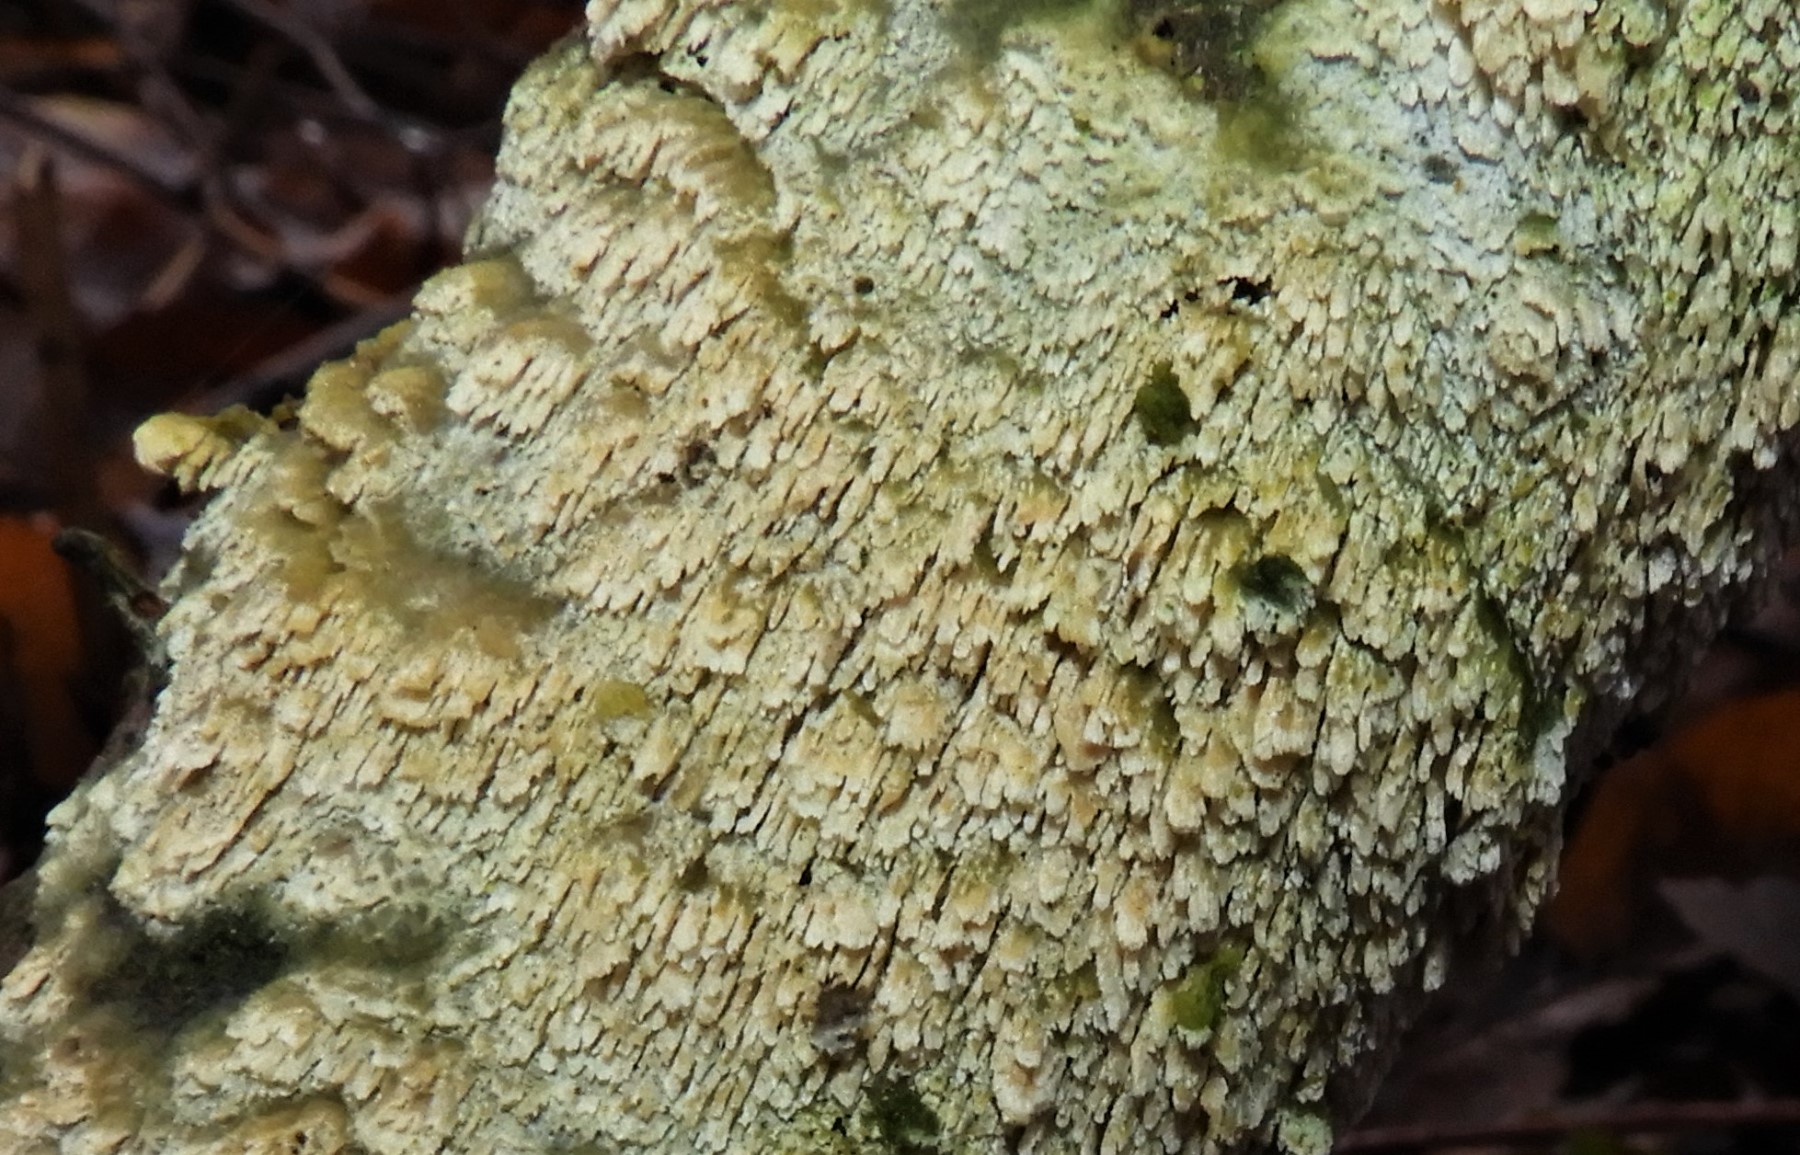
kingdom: Fungi
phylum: Basidiomycota
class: Agaricomycetes
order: Hymenochaetales
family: Schizoporaceae
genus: Schizopora
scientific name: Schizopora paradoxa
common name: hvid tandsvamp
